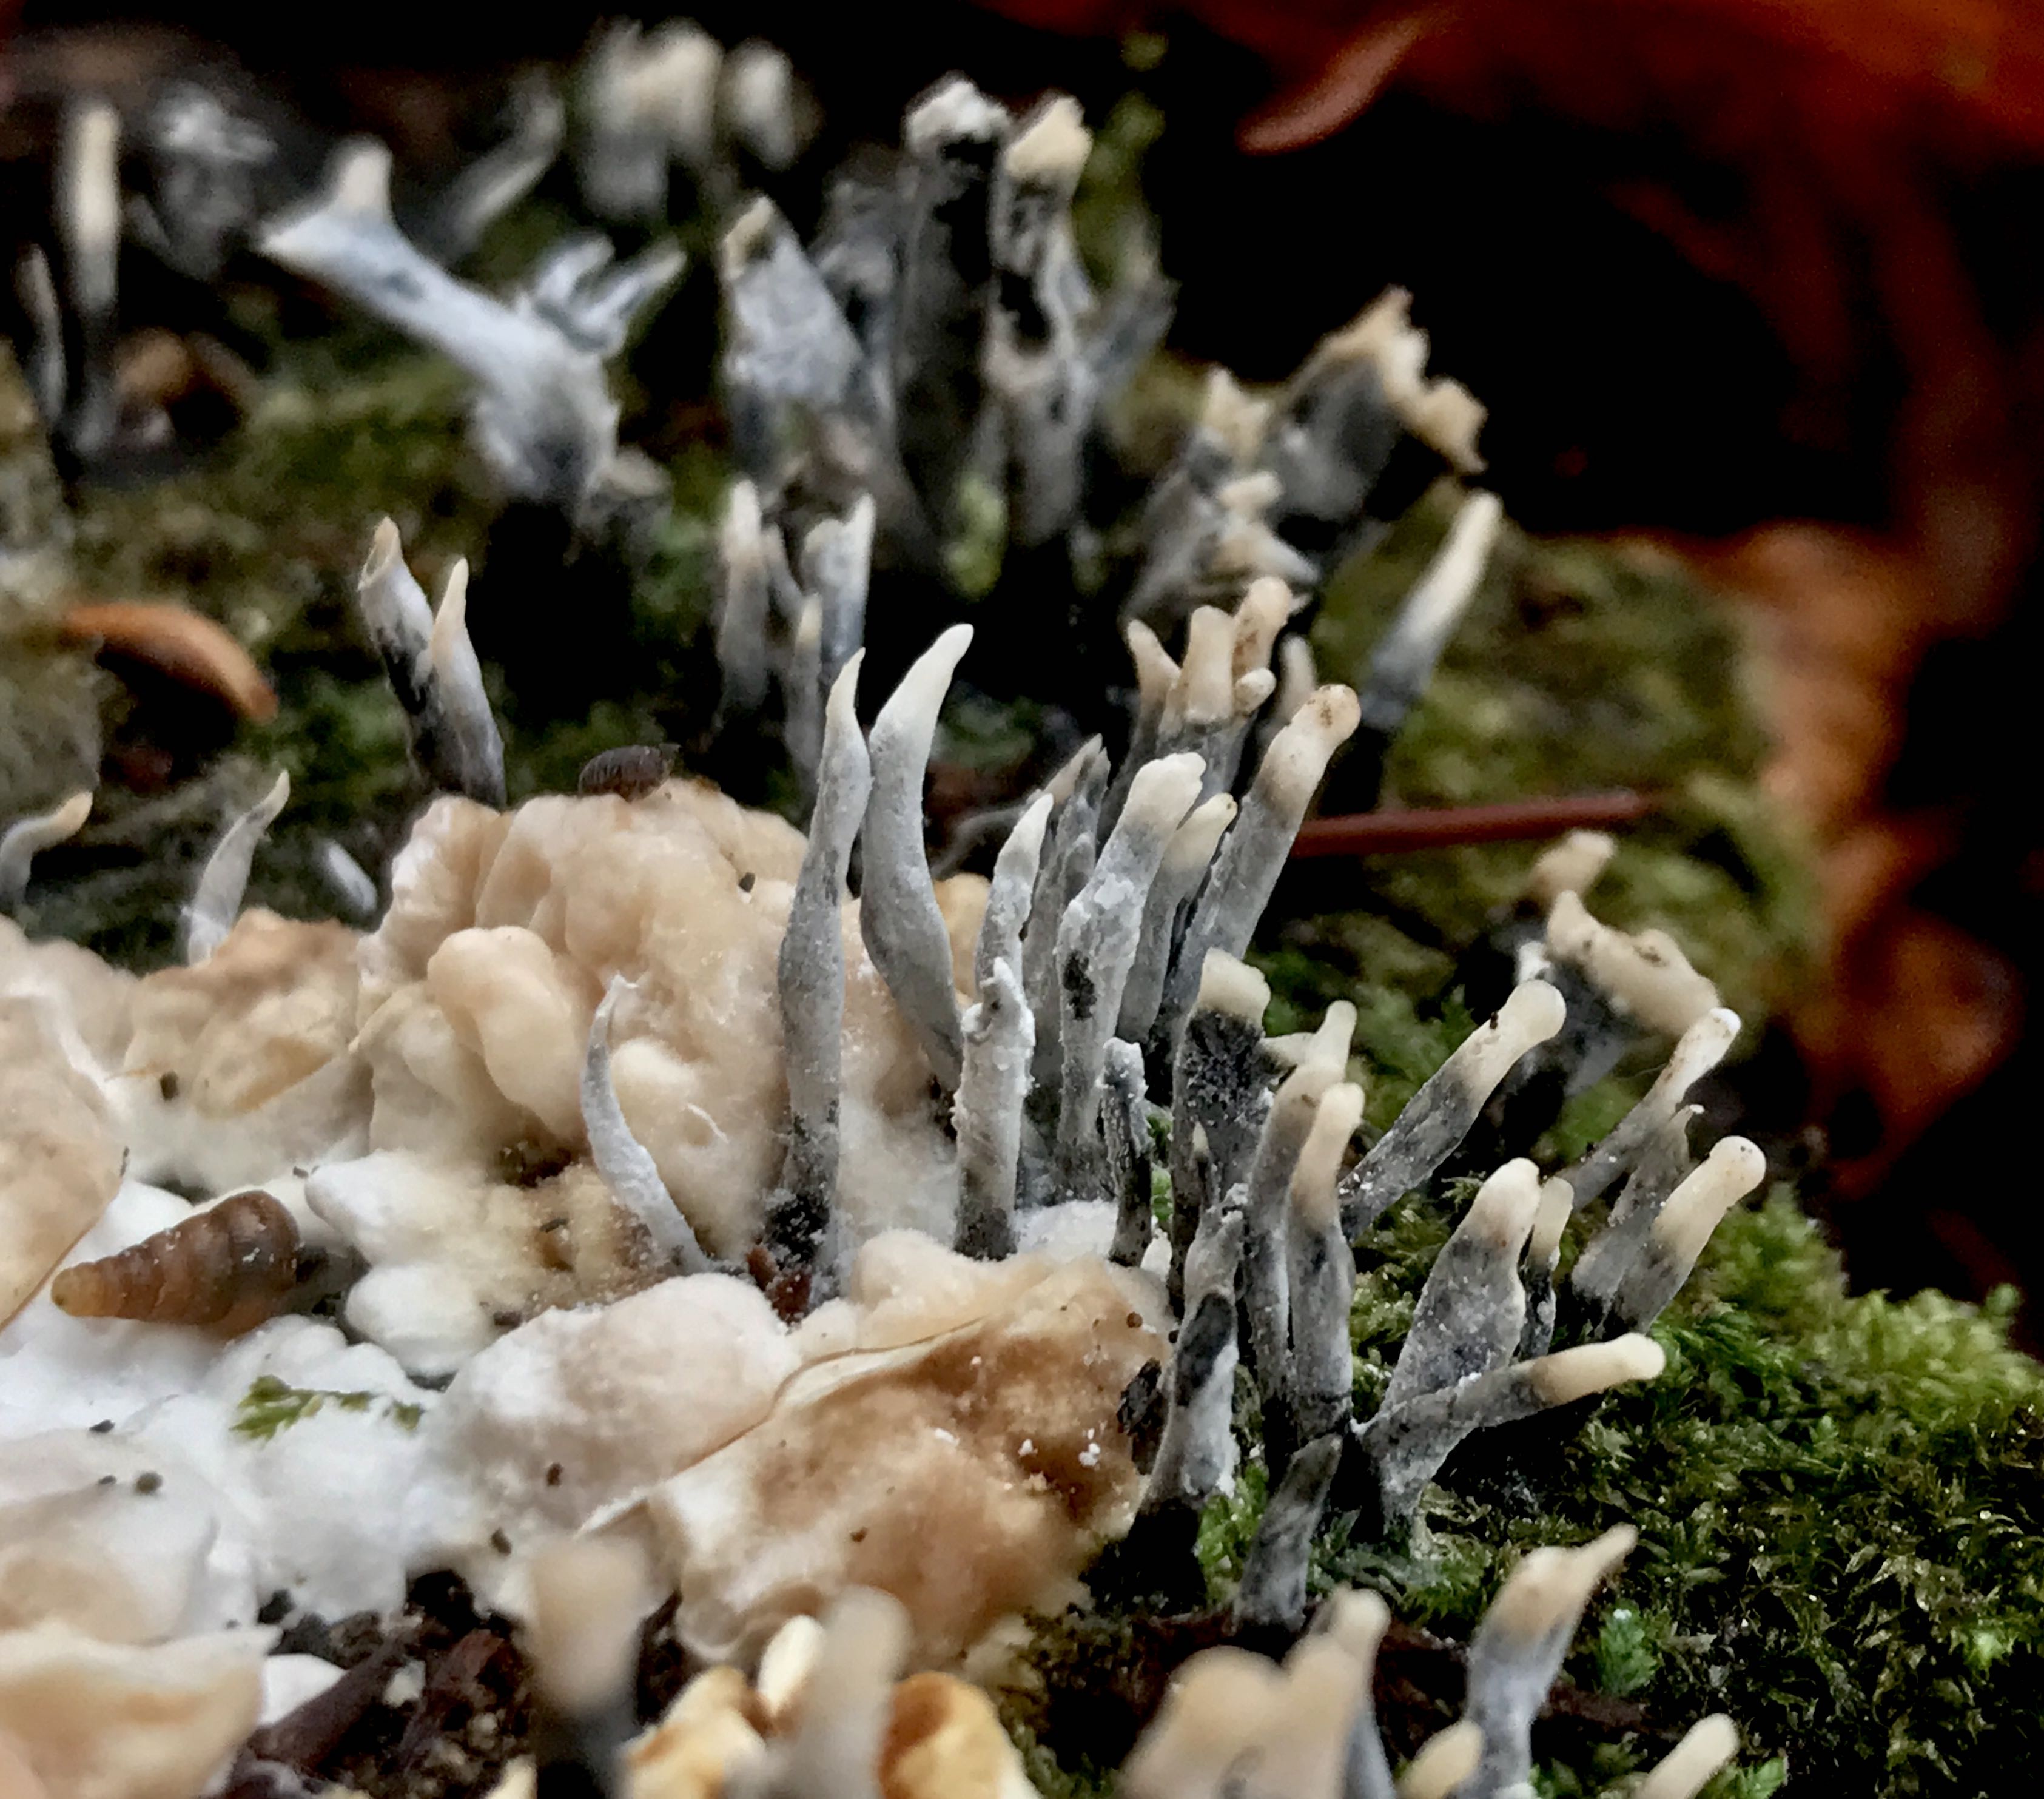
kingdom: Fungi
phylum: Ascomycota
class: Sordariomycetes
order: Xylariales
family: Xylariaceae
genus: Xylaria
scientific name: Xylaria hypoxylon
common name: grenet stødsvamp
